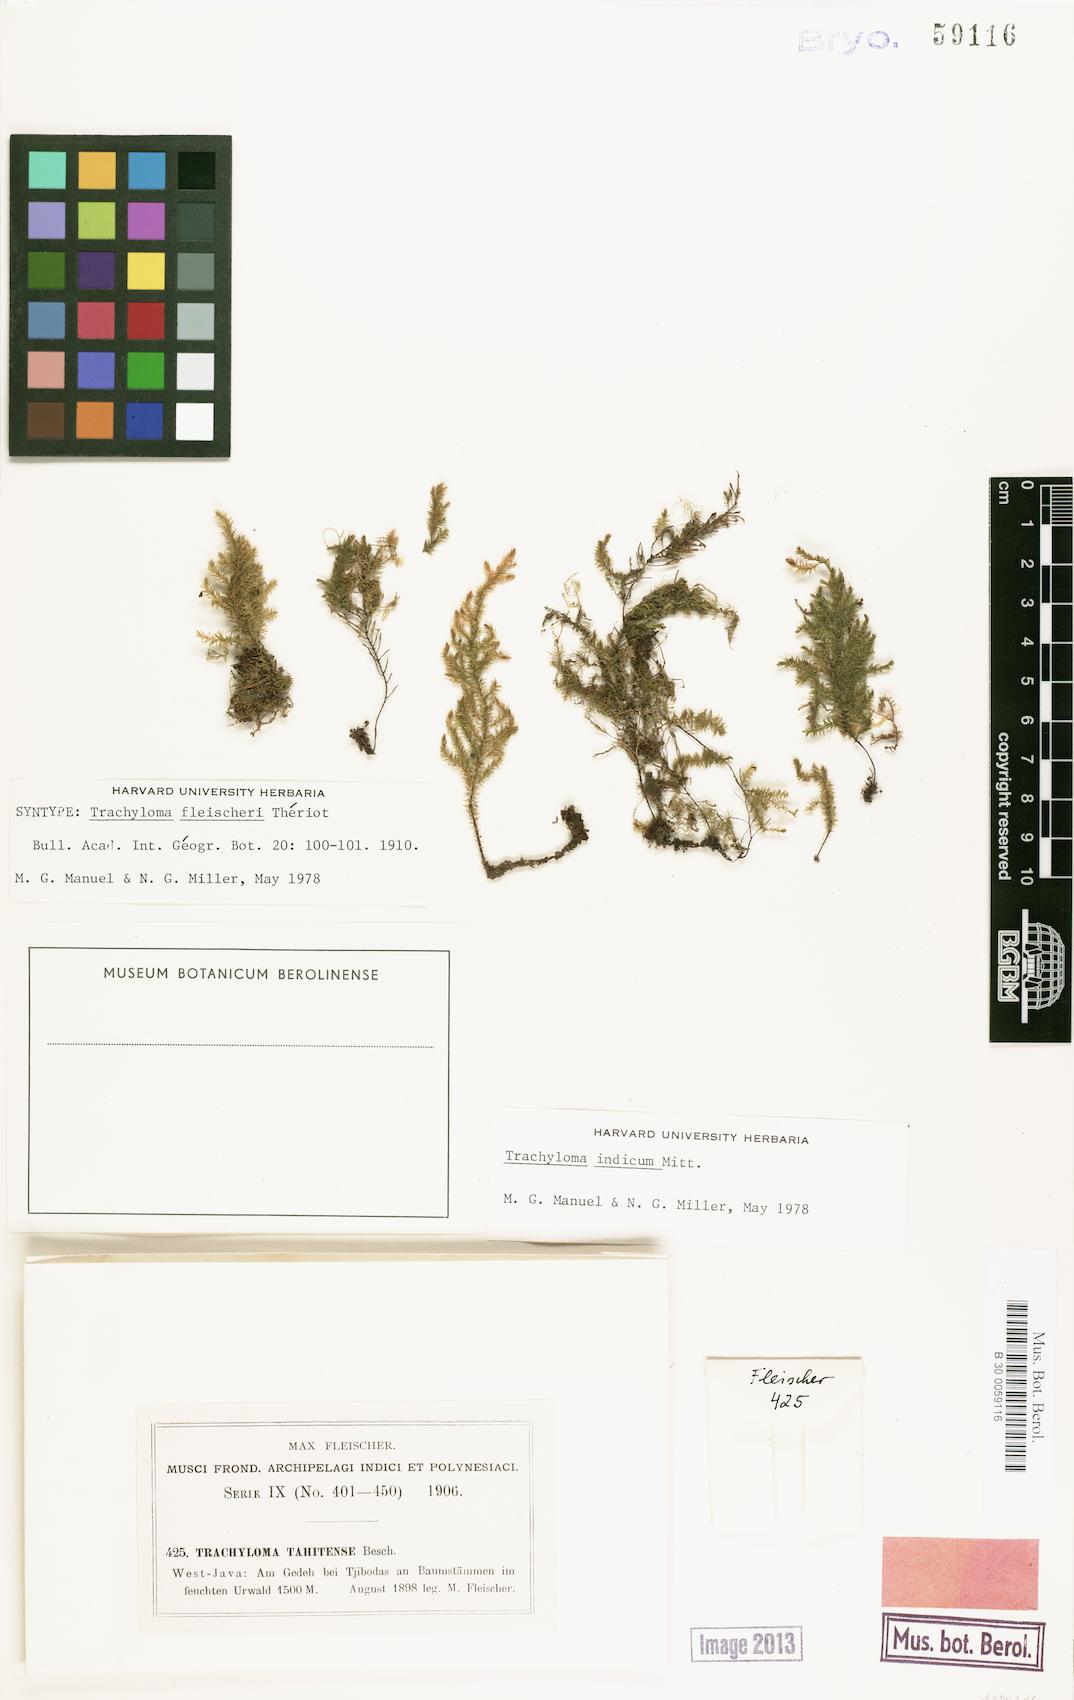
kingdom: Plantae
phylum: Bryophyta
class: Bryopsida
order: Hypnales
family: Trachylomataceae
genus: Trachyloma
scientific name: Trachyloma indicum
